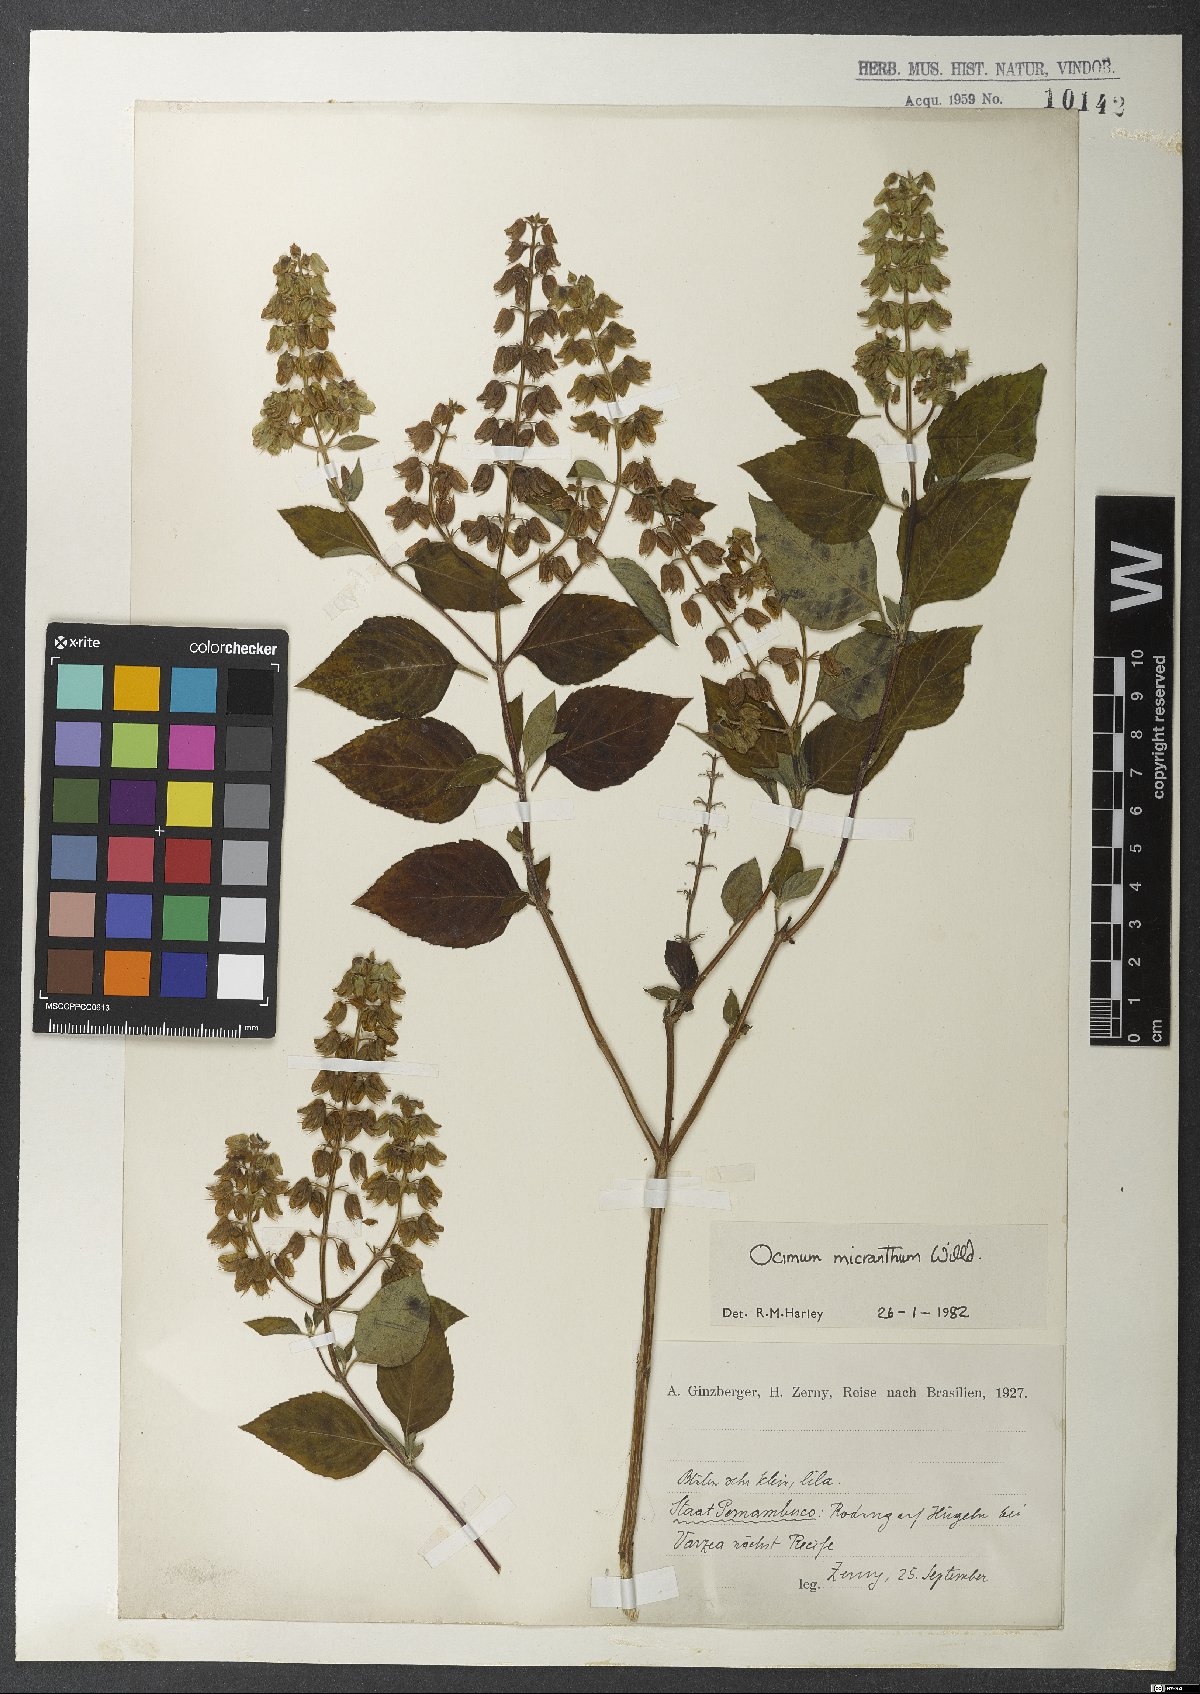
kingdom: Plantae
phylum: Tracheophyta
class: Magnoliopsida
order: Lamiales
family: Lamiaceae
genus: Ocimum
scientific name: Ocimum campechianum
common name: Mosquito basil
